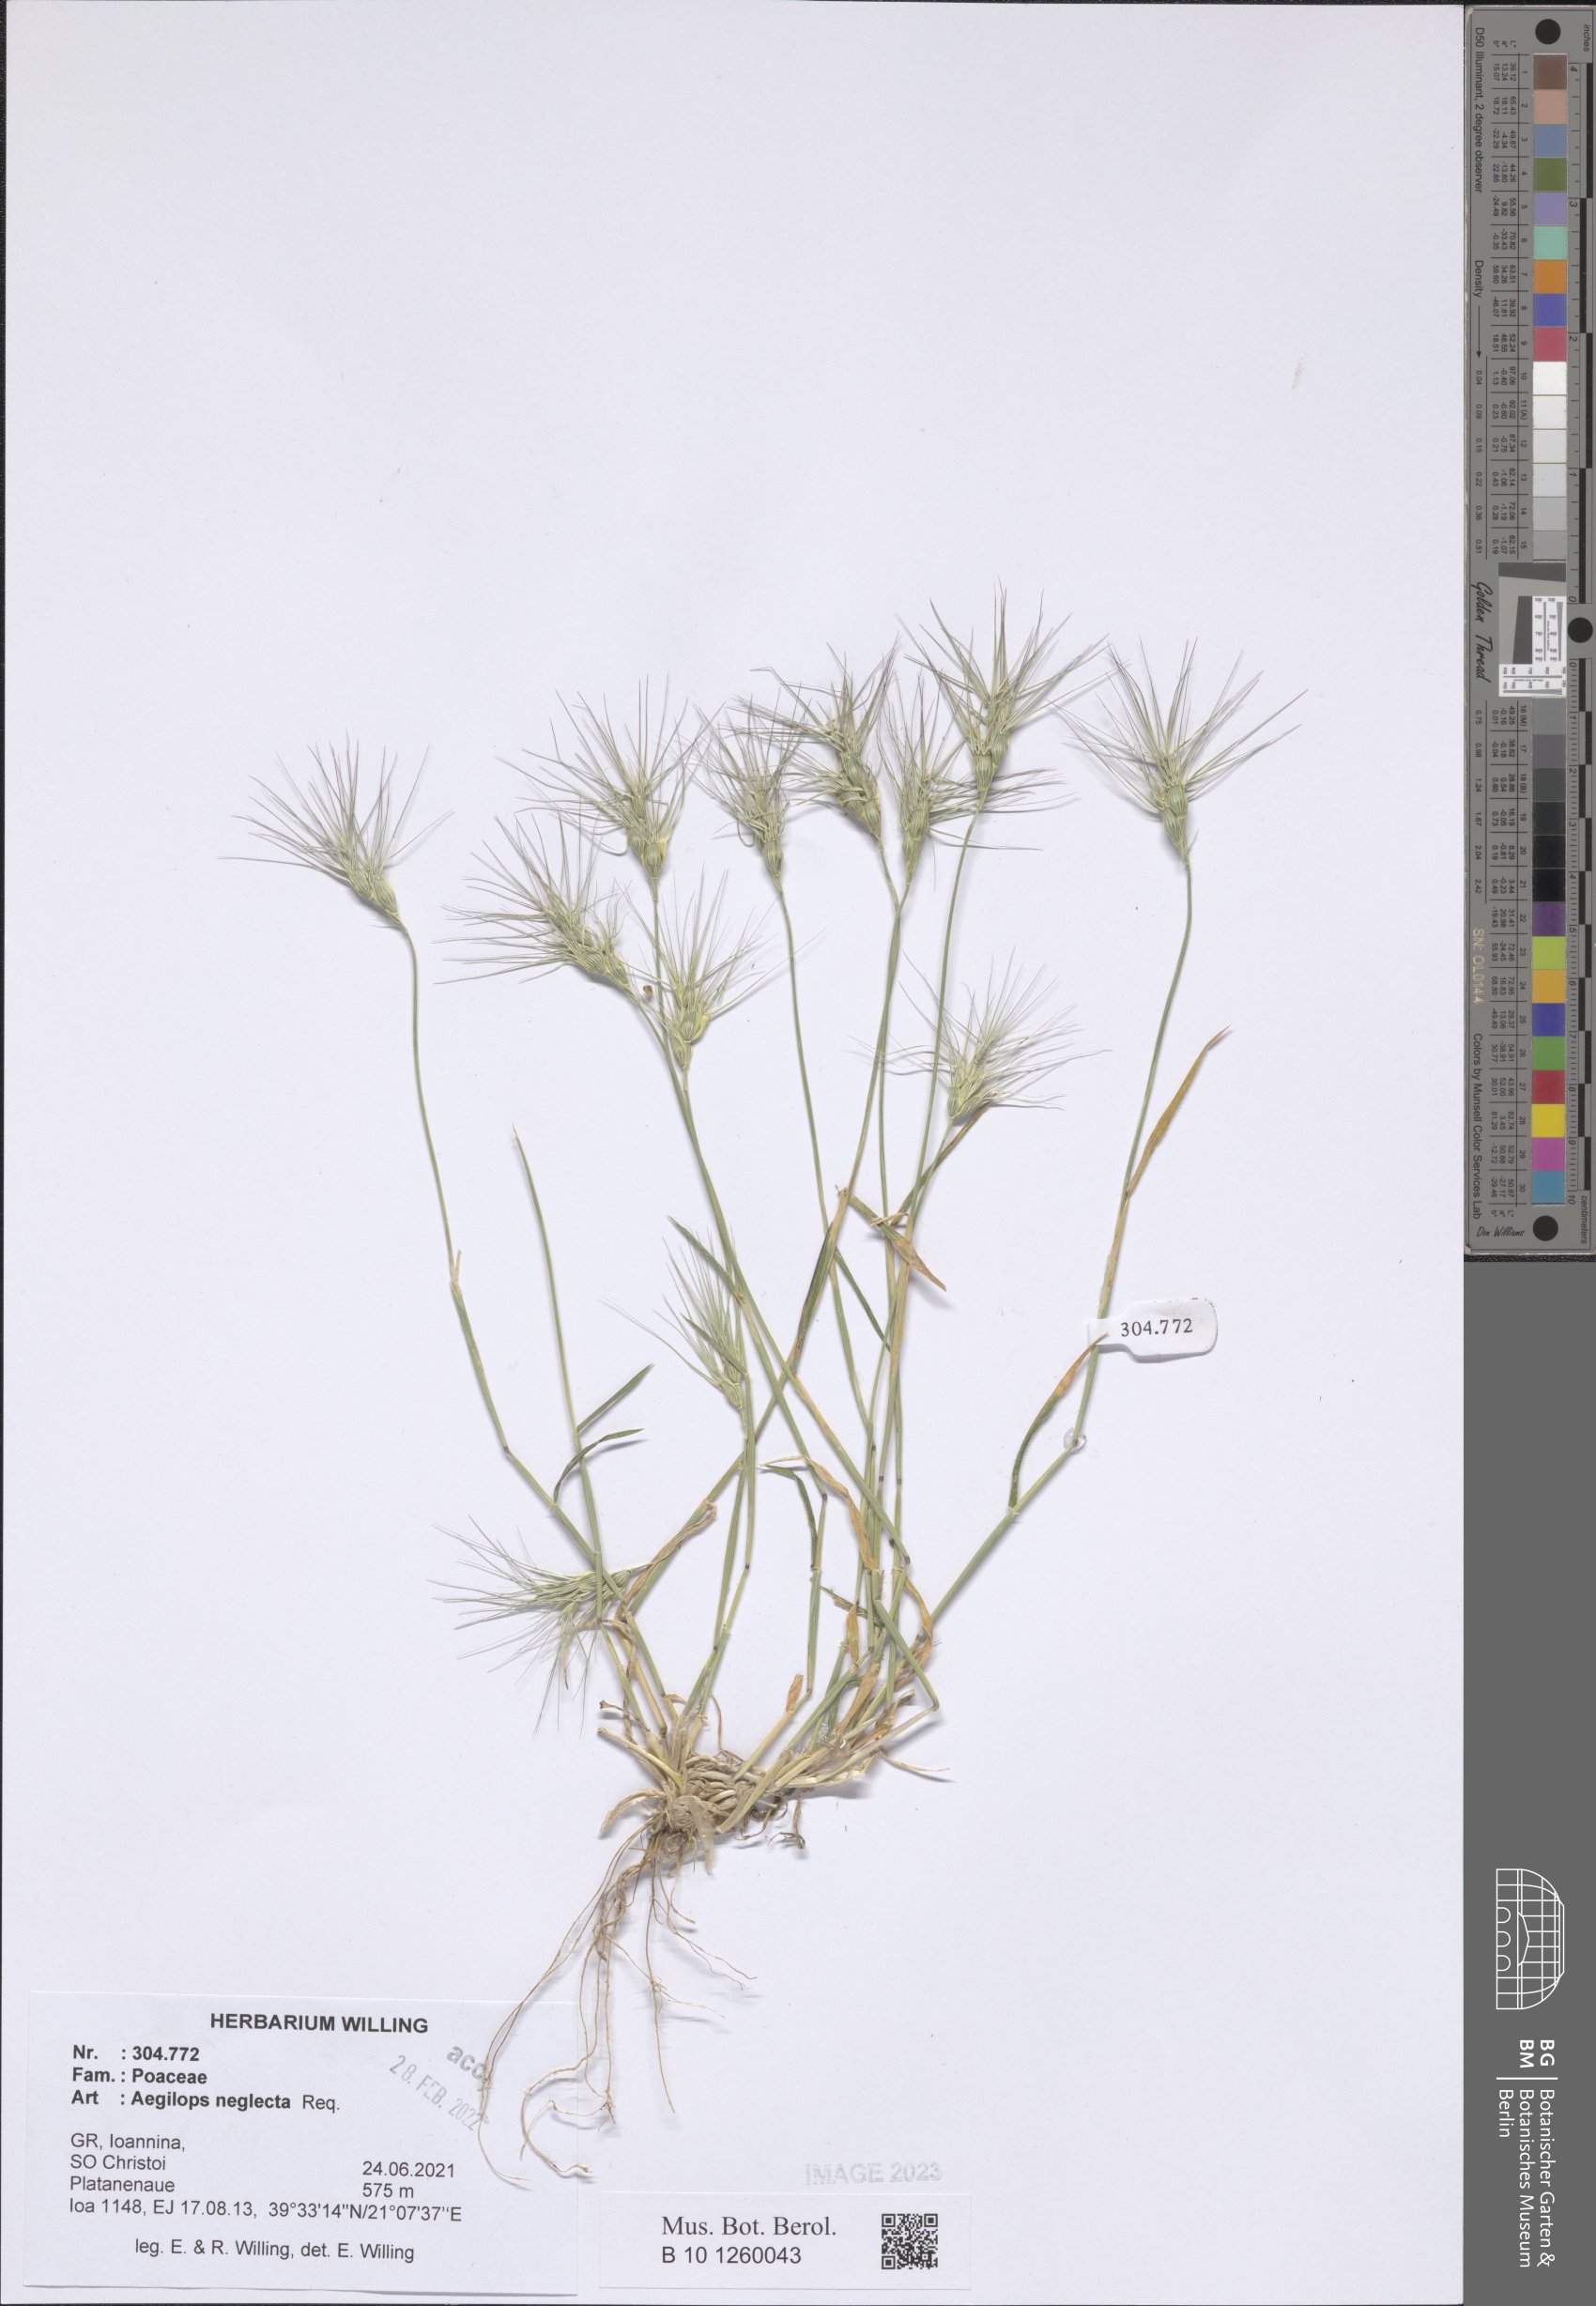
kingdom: Plantae
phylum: Tracheophyta
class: Liliopsida
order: Poales
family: Poaceae
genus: Aegilops
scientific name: Aegilops neglecta
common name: Three-awn goat grass
